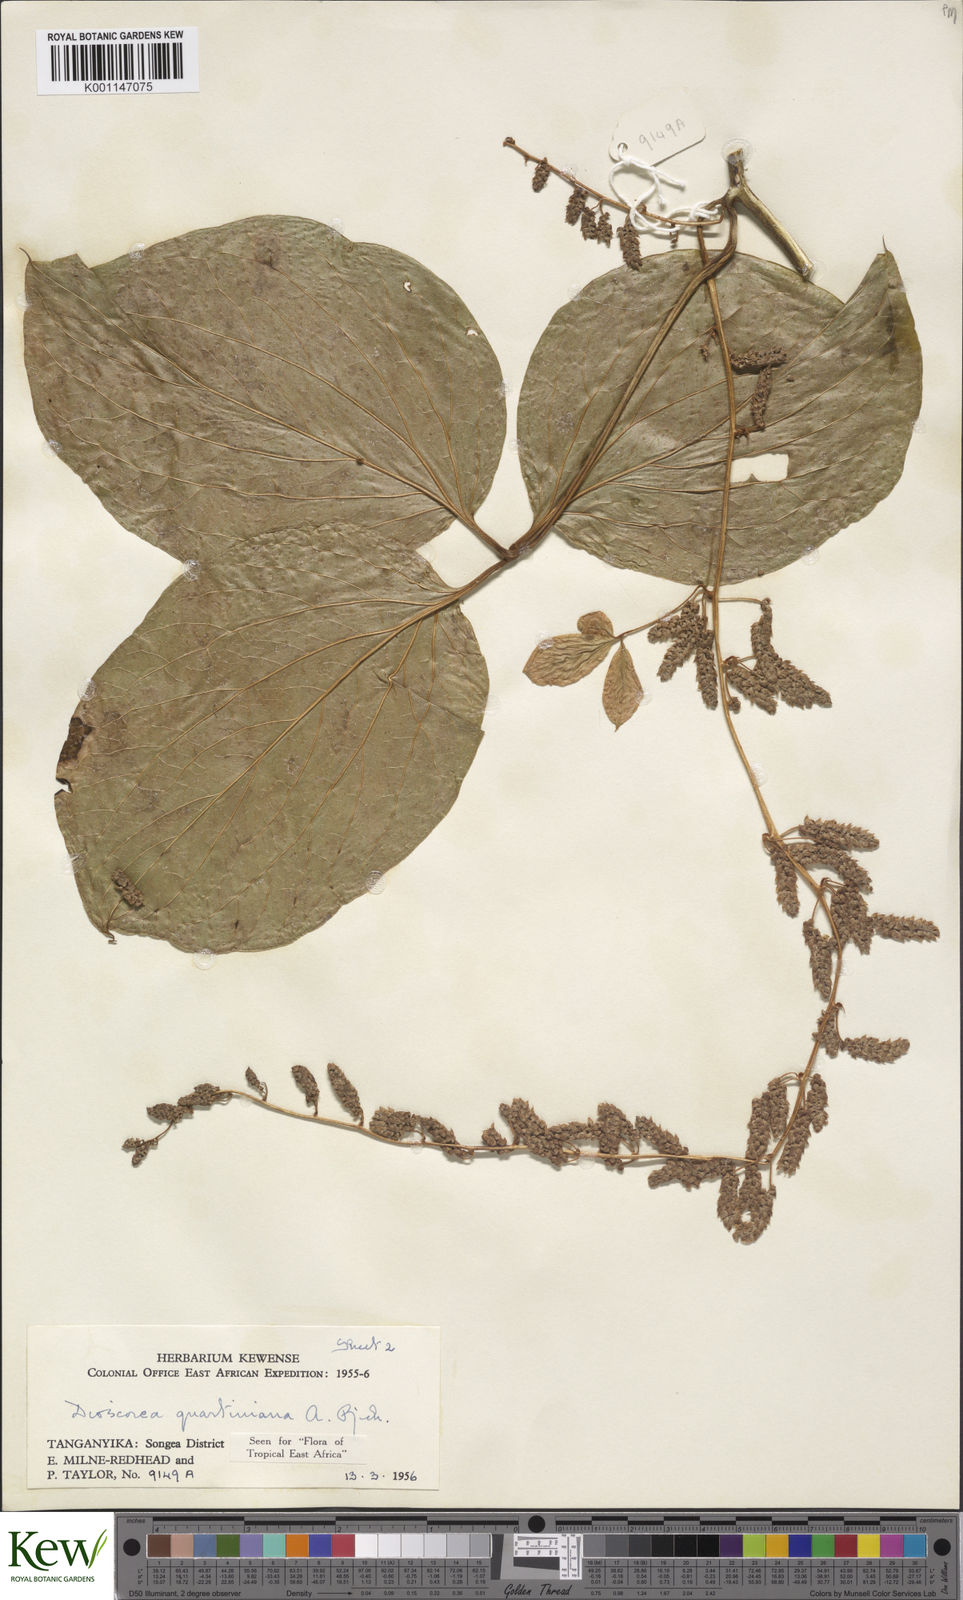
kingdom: Plantae
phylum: Tracheophyta
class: Liliopsida
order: Dioscoreales
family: Dioscoreaceae
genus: Dioscorea
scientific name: Dioscorea quartiniana
